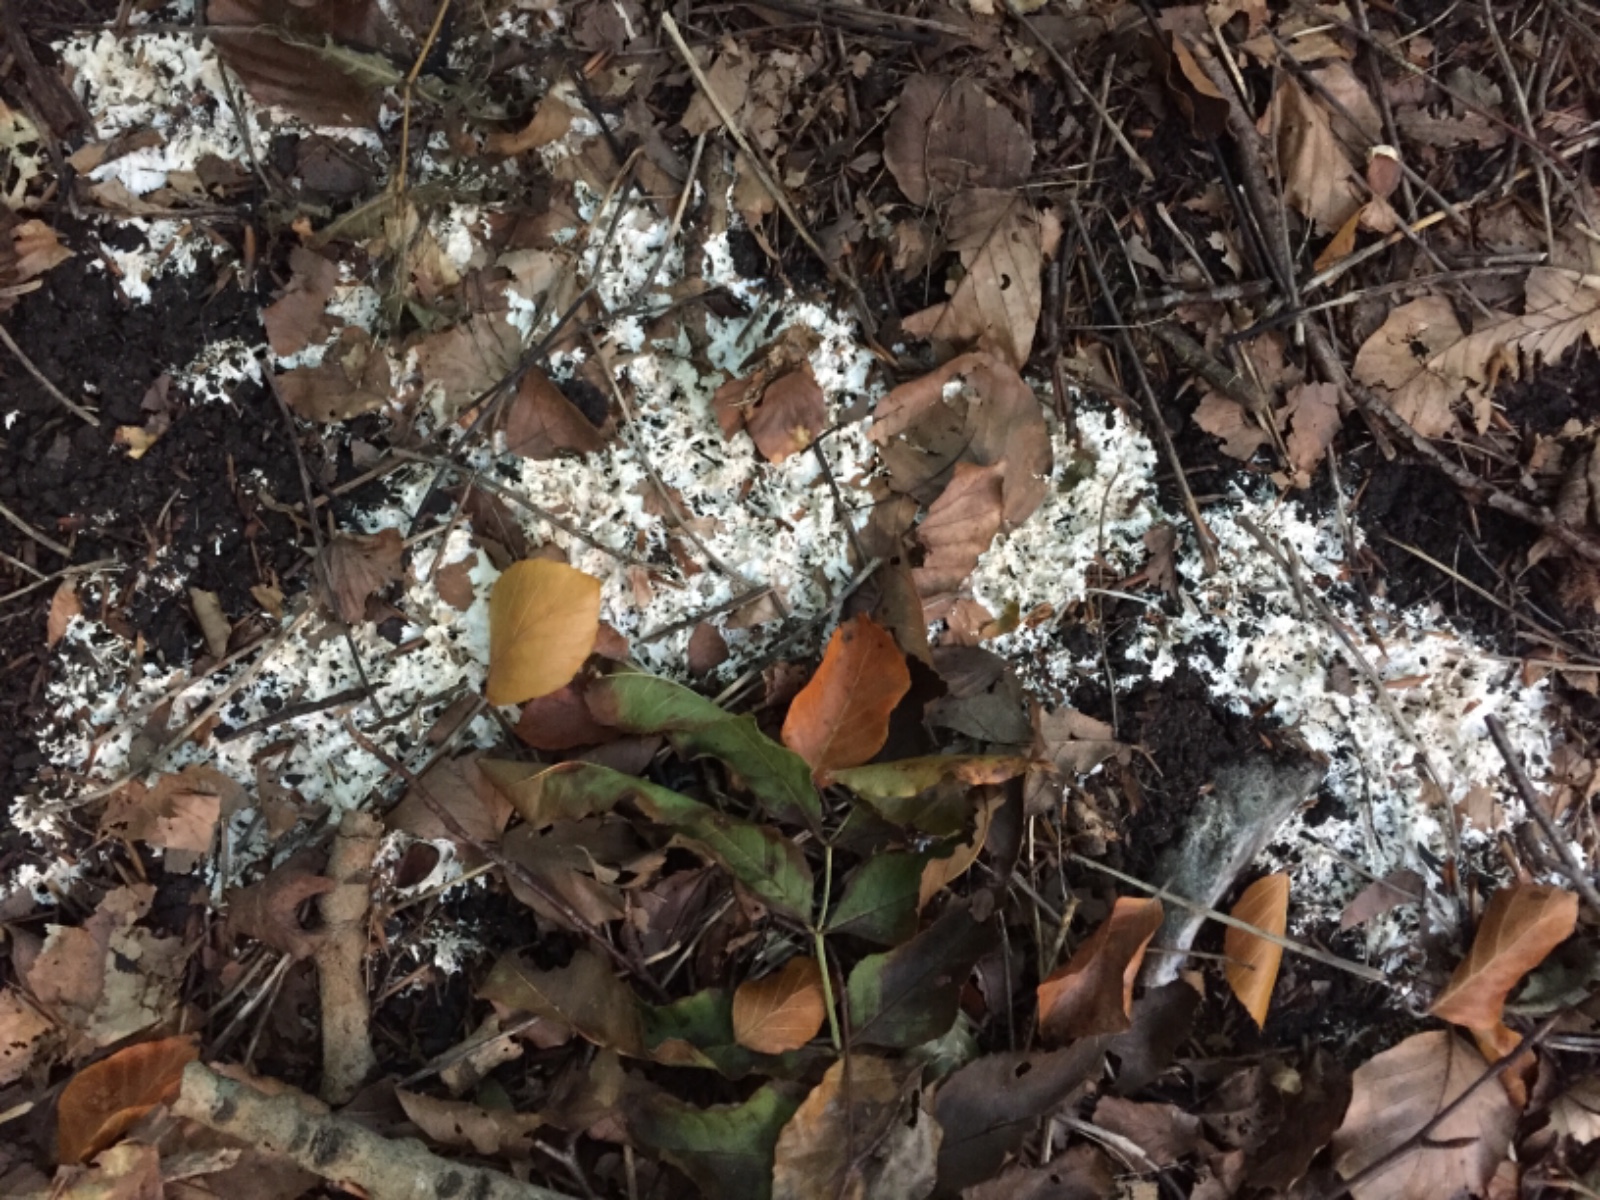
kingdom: Fungi
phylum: Basidiomycota
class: Agaricomycetes
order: Trechisporales
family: Sistotremataceae
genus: Trechispora
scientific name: Trechispora fastidiosa
